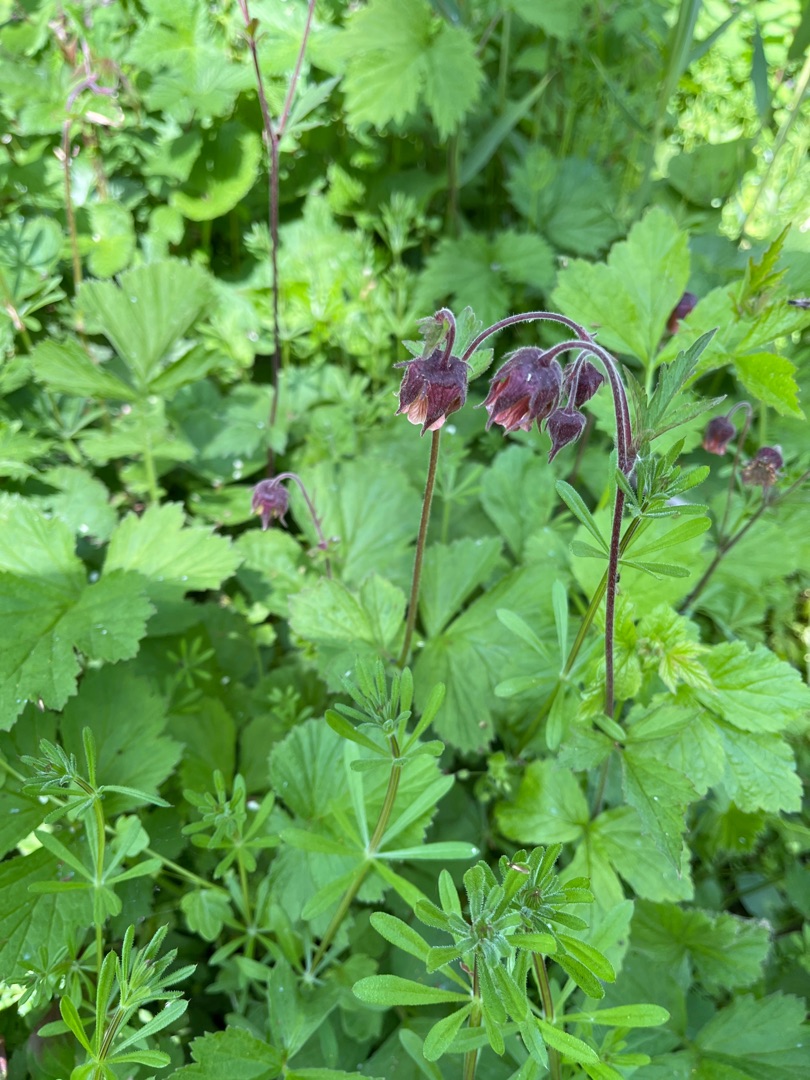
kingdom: Plantae
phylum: Tracheophyta
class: Magnoliopsida
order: Rosales
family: Rosaceae
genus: Geum
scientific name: Geum rivale
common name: Eng-nellikerod
